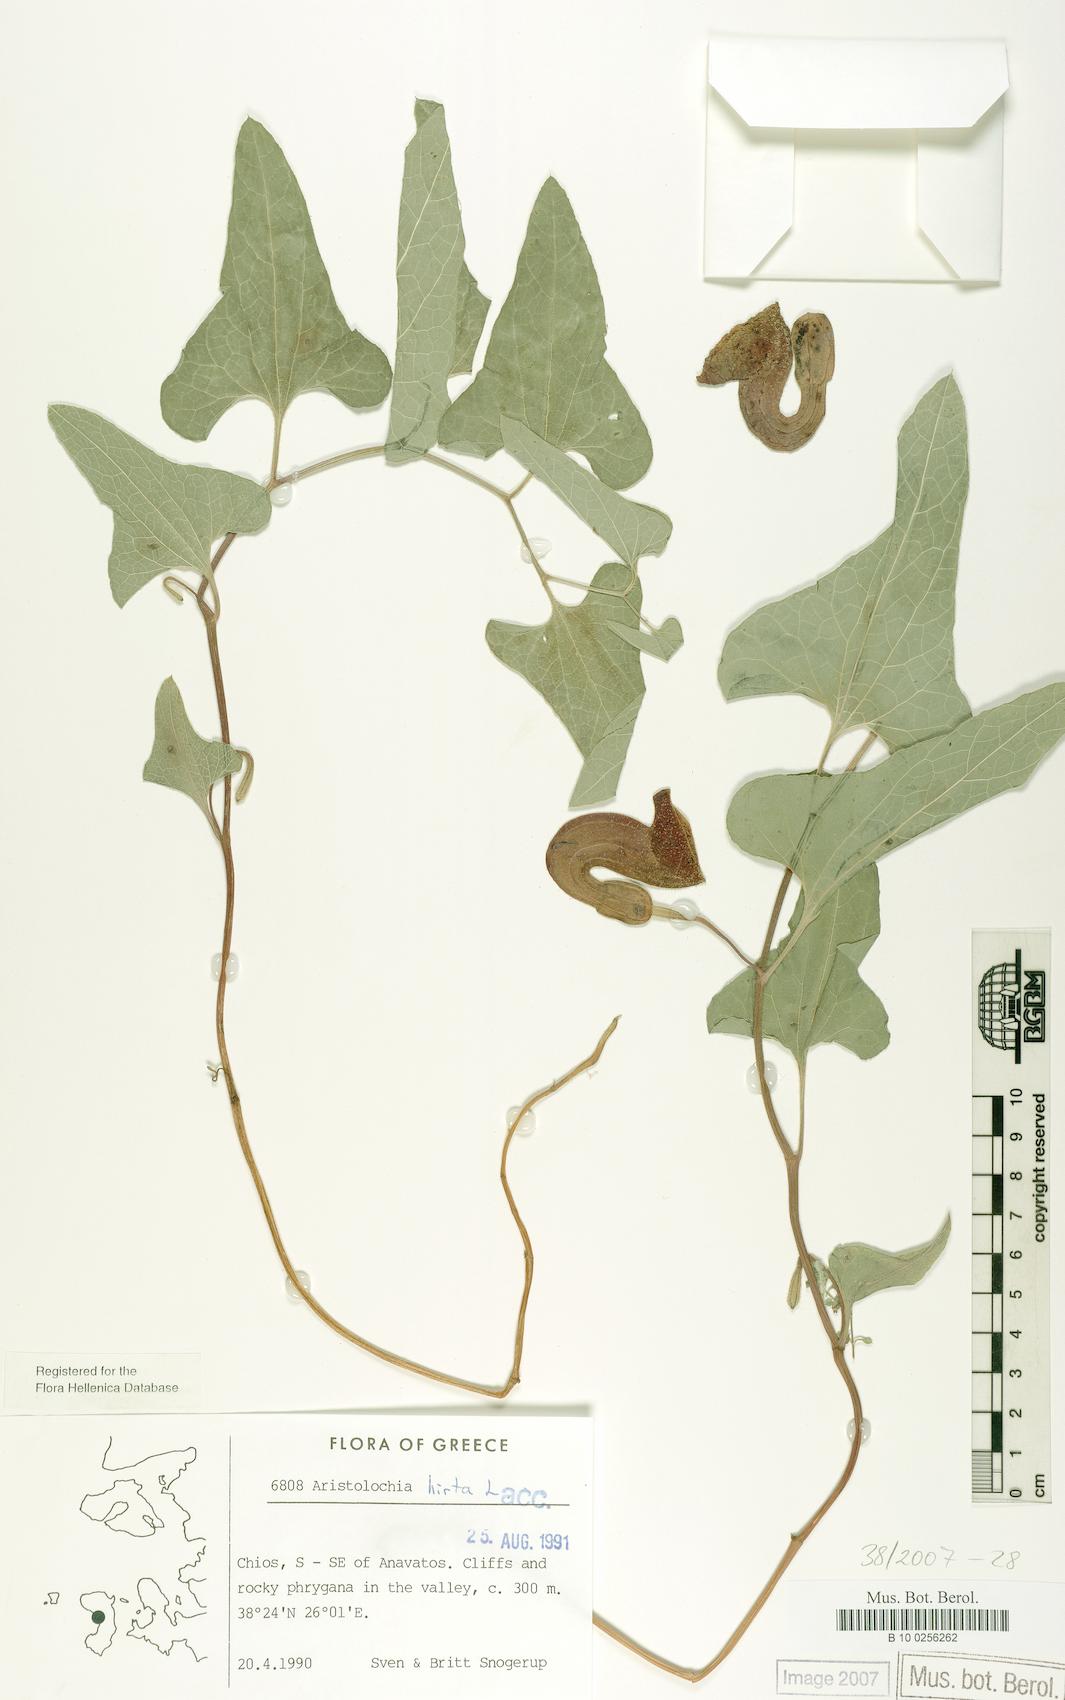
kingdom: Plantae
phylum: Tracheophyta
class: Magnoliopsida
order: Piperales
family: Aristolochiaceae
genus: Aristolochia
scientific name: Aristolochia hirta
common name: Breckland birthwort
